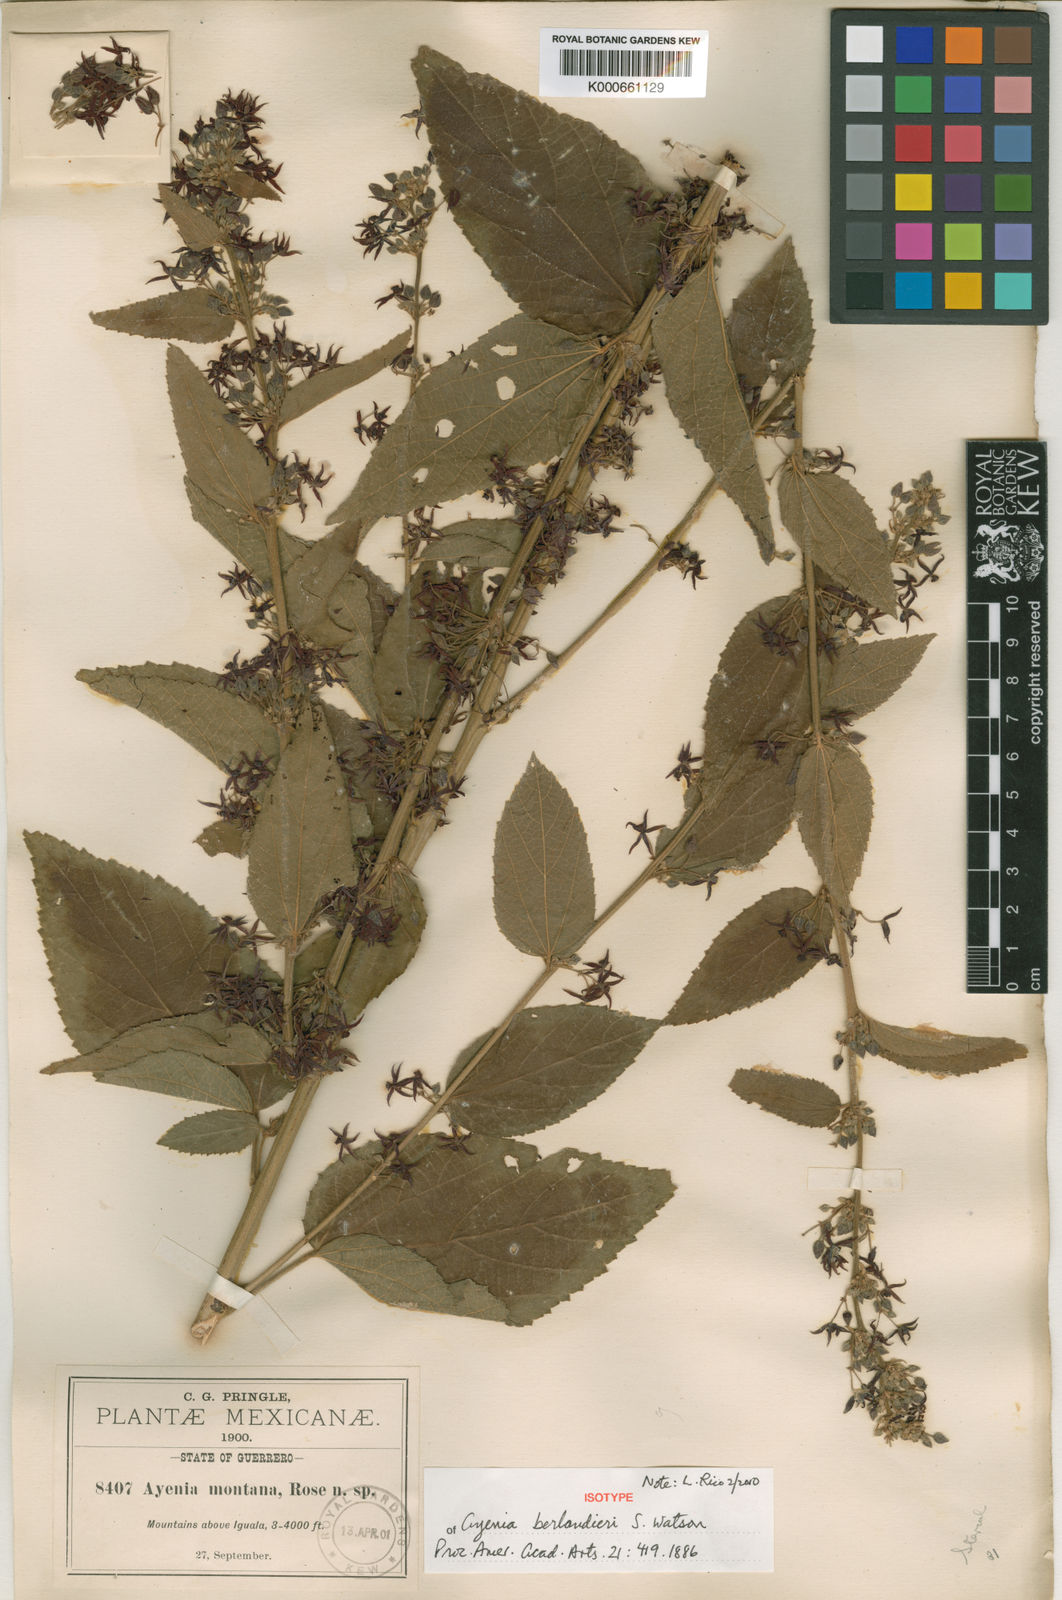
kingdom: Plantae
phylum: Tracheophyta
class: Magnoliopsida
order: Malvales
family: Malvaceae
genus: Ayenia
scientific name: Ayenia berlandieri
